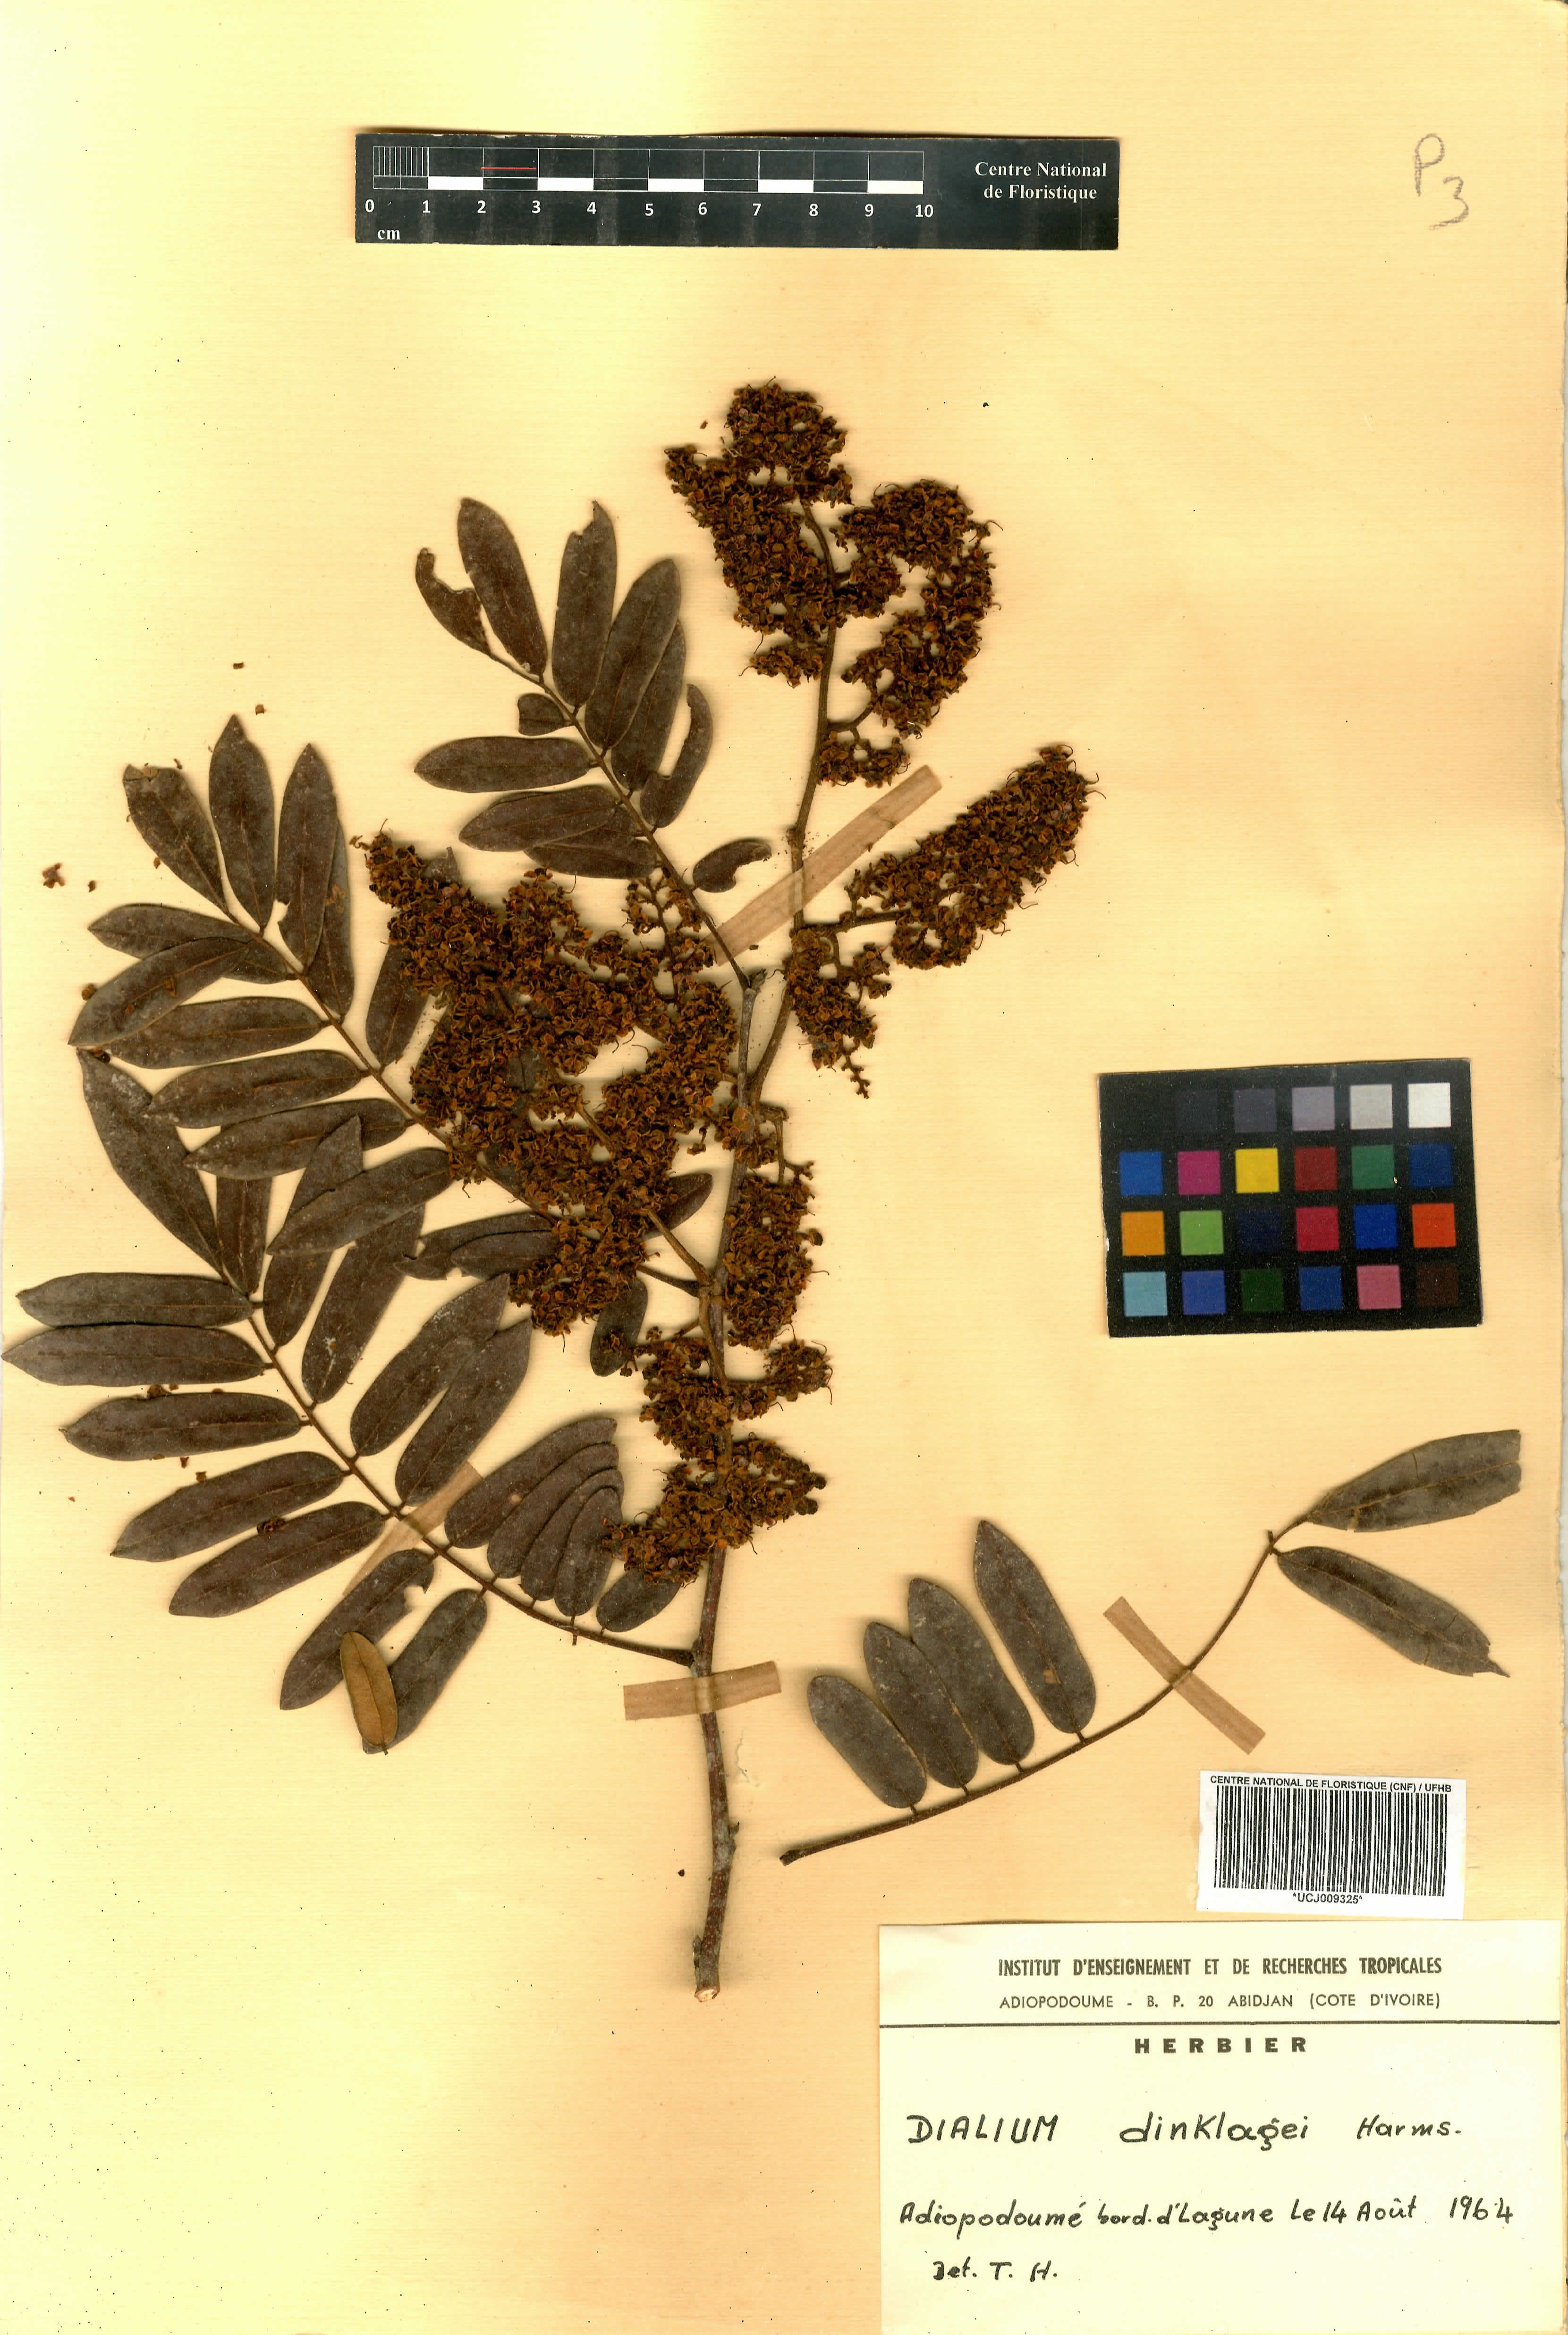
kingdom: Plantae
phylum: Tracheophyta
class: Magnoliopsida
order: Fabales
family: Fabaceae
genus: Dialium
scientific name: Dialium dinklagei
